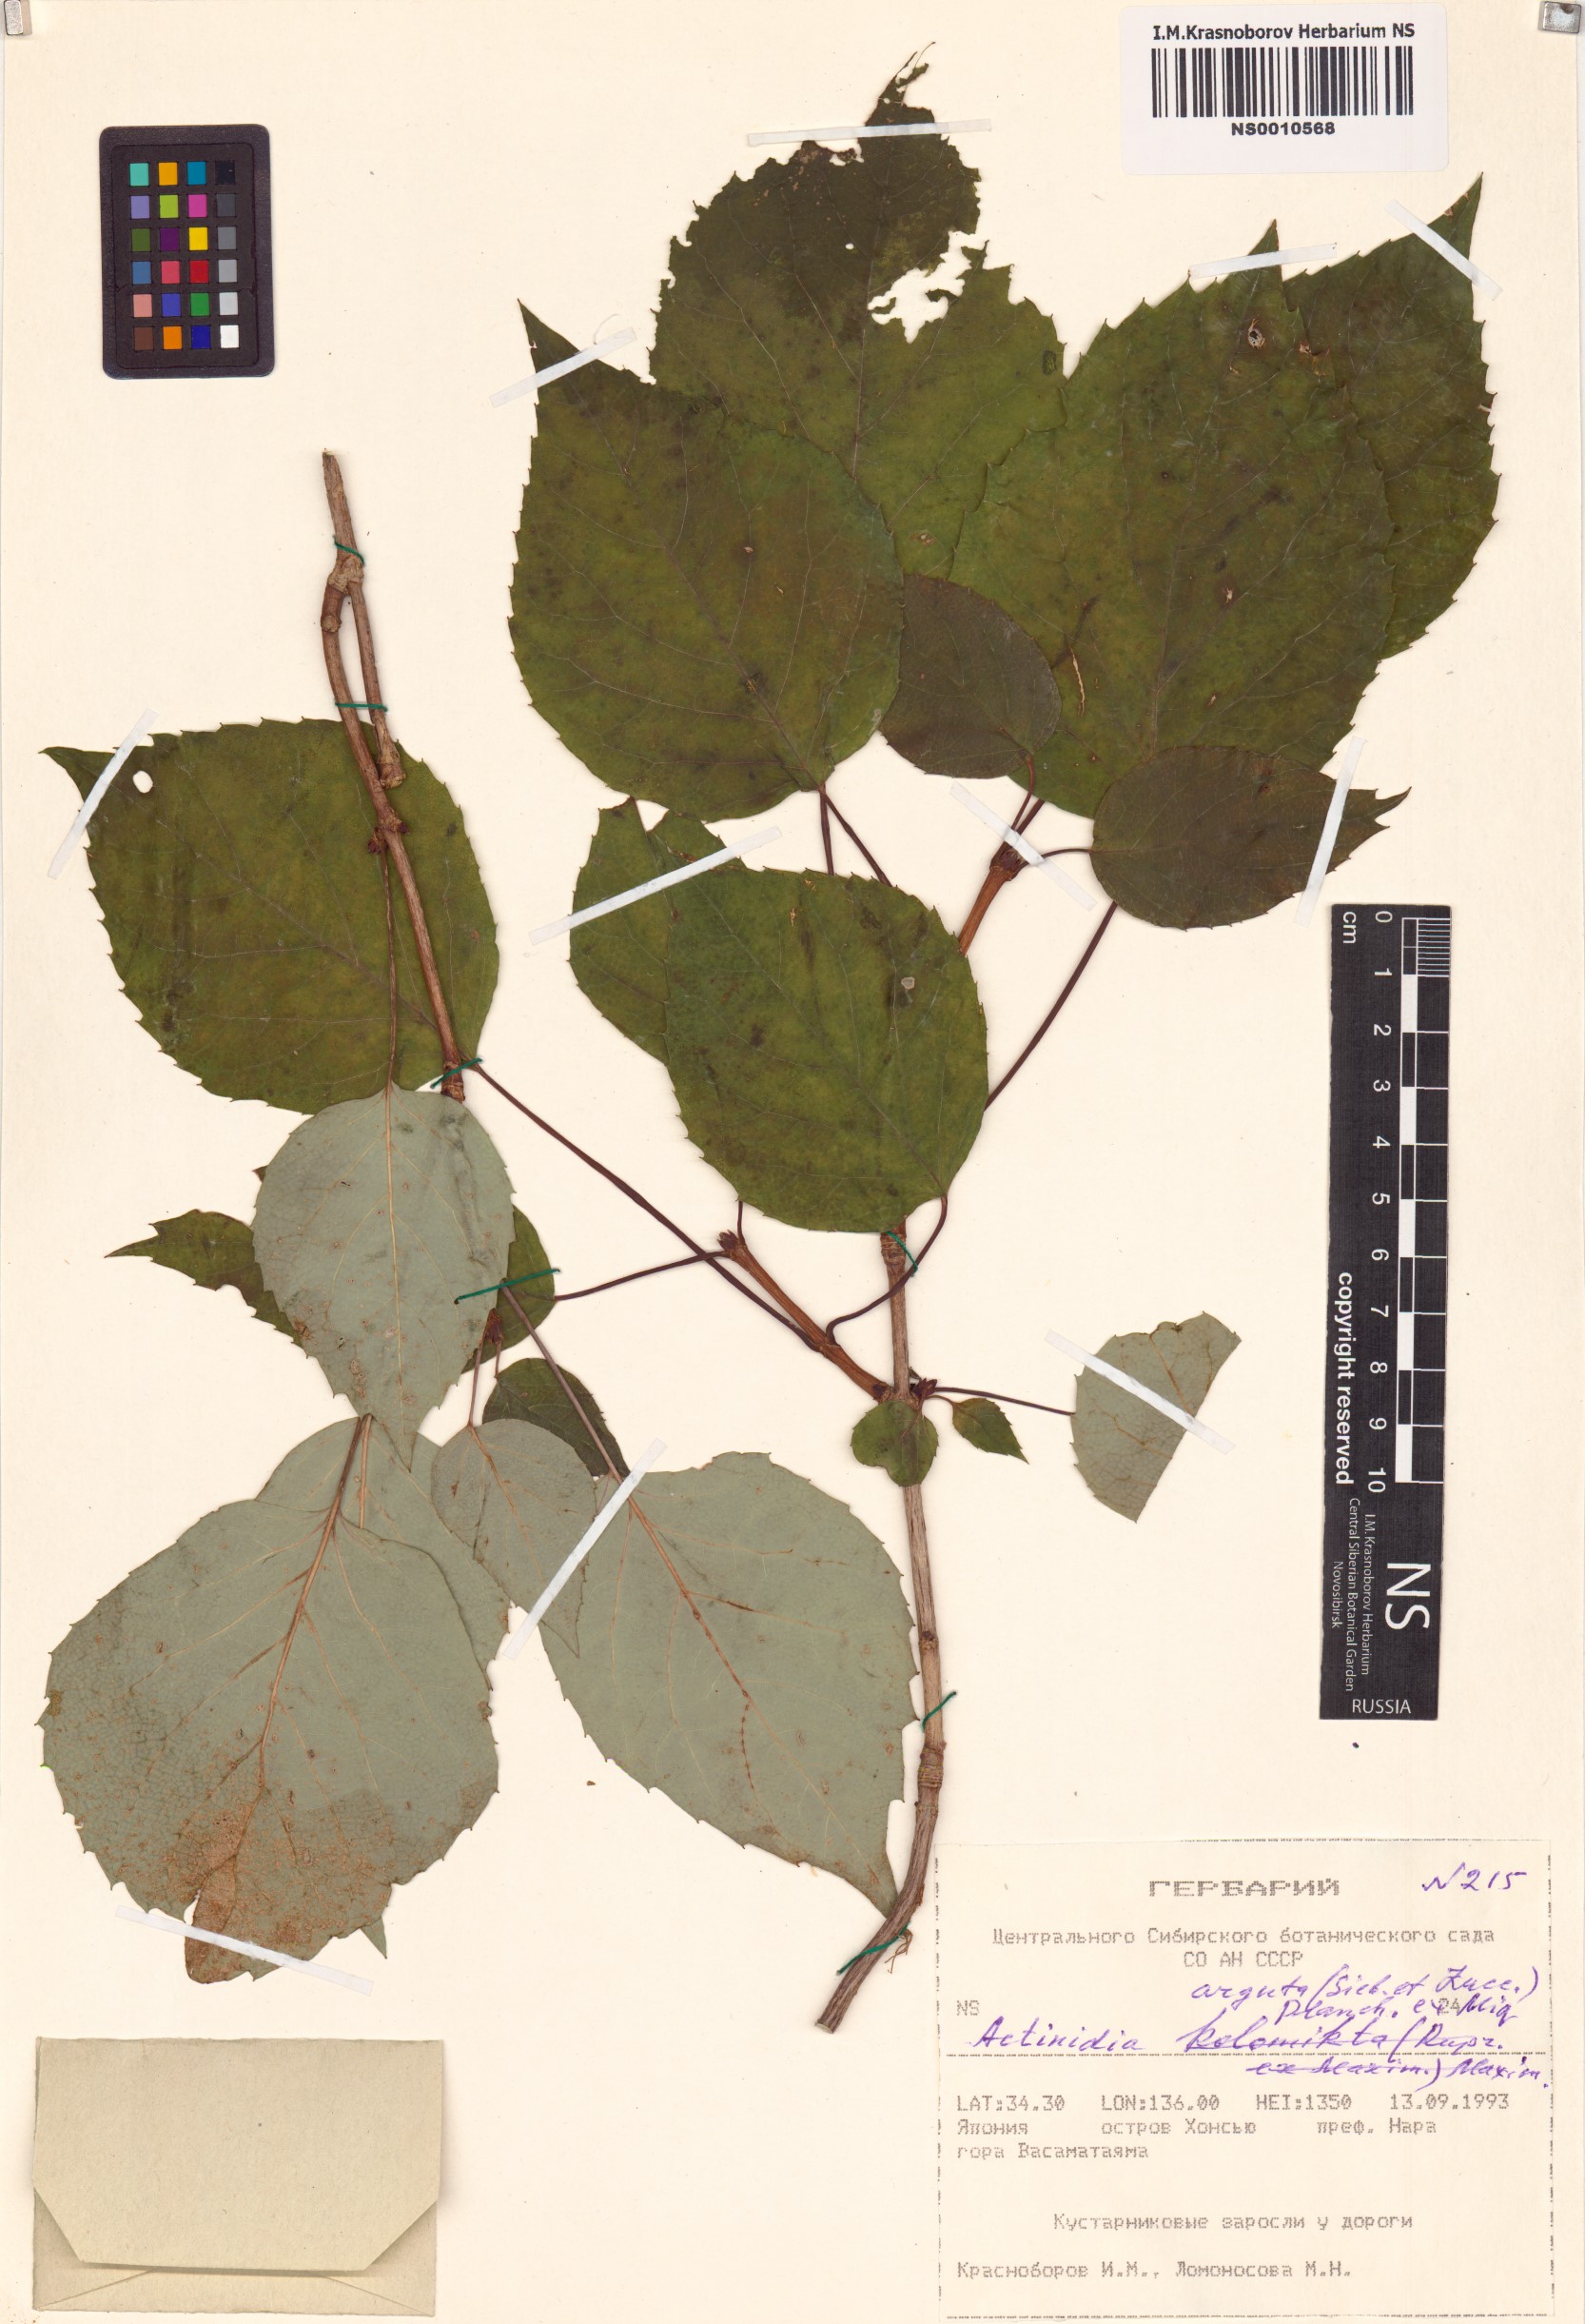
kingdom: Plantae
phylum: Tracheophyta
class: Magnoliopsida
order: Ericales
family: Actinidiaceae
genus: Actinidia
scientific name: Actinidia arguta
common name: Tara vine
